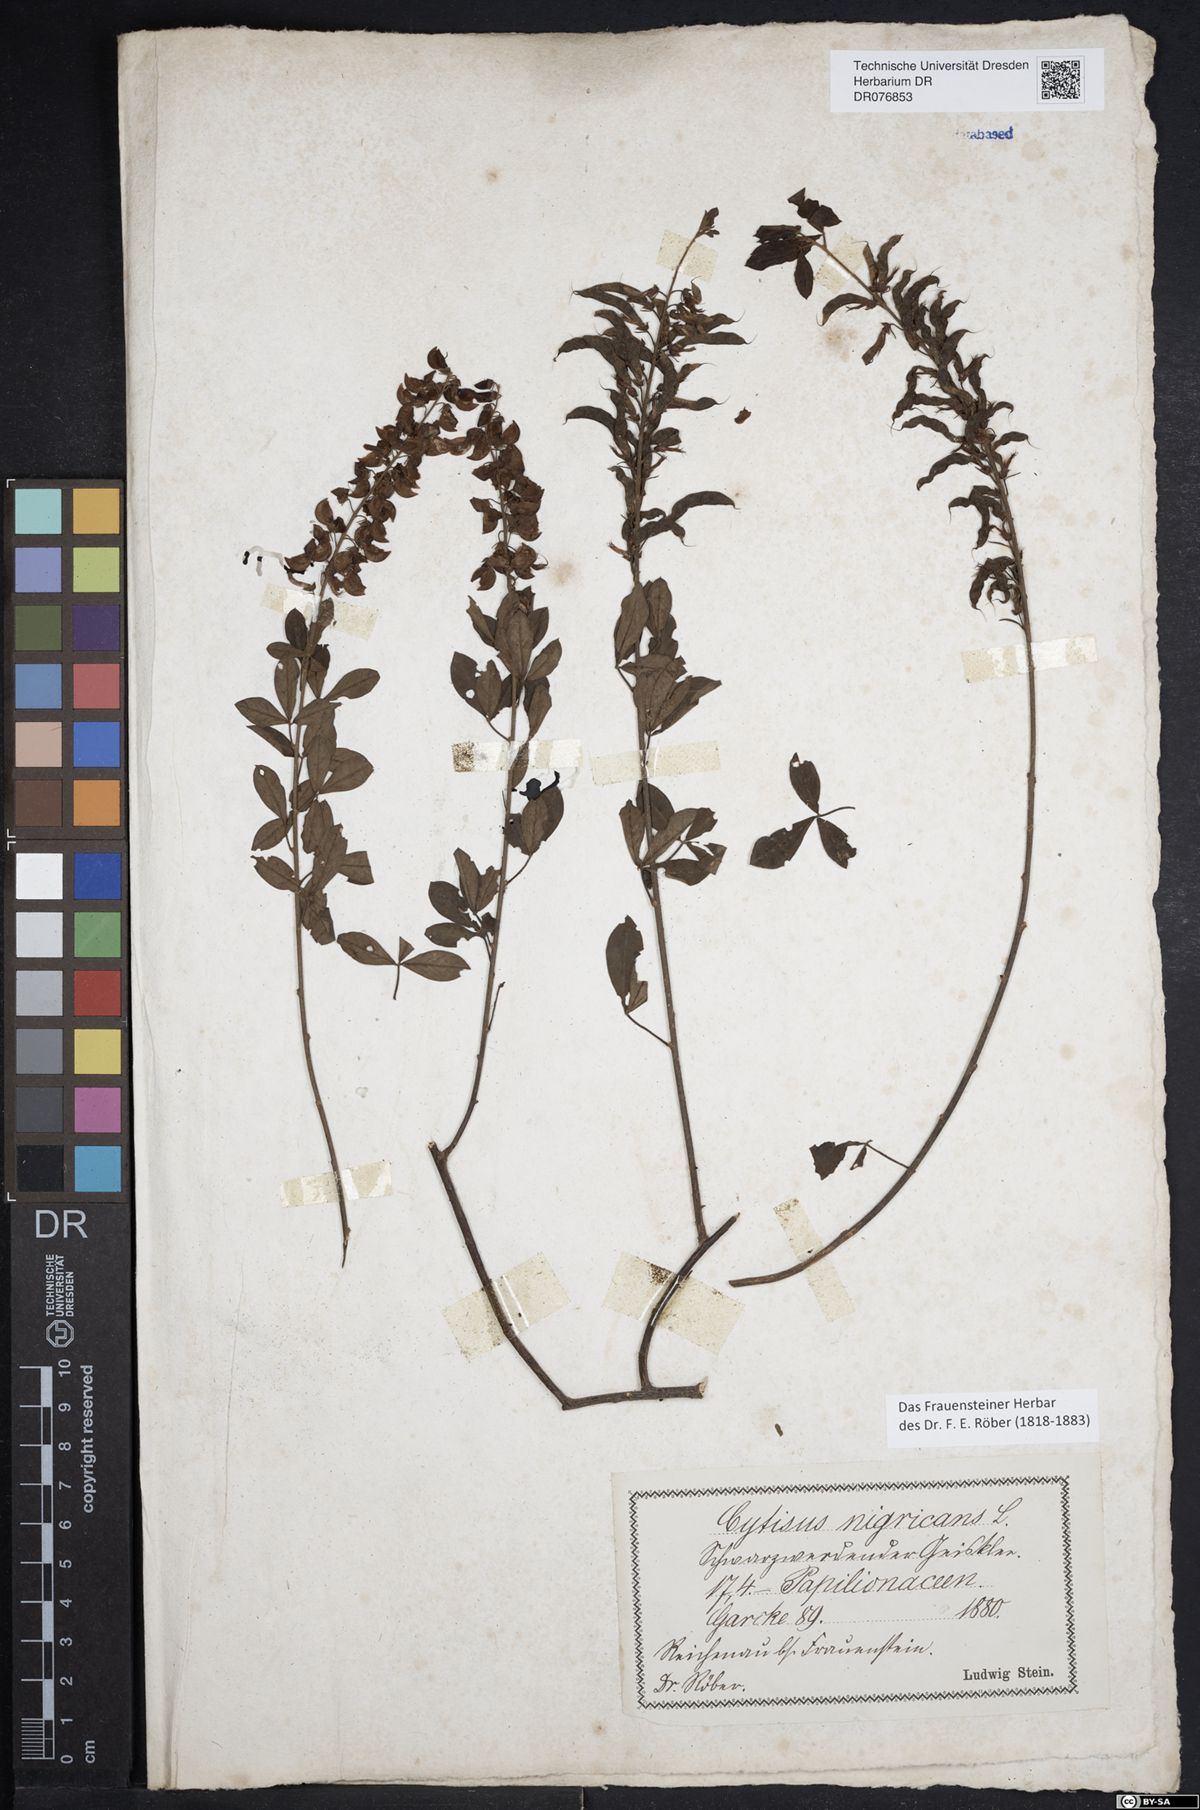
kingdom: Plantae
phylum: Tracheophyta
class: Magnoliopsida
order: Fabales
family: Fabaceae
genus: Cytisus
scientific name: Cytisus nigricans
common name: Black broom
